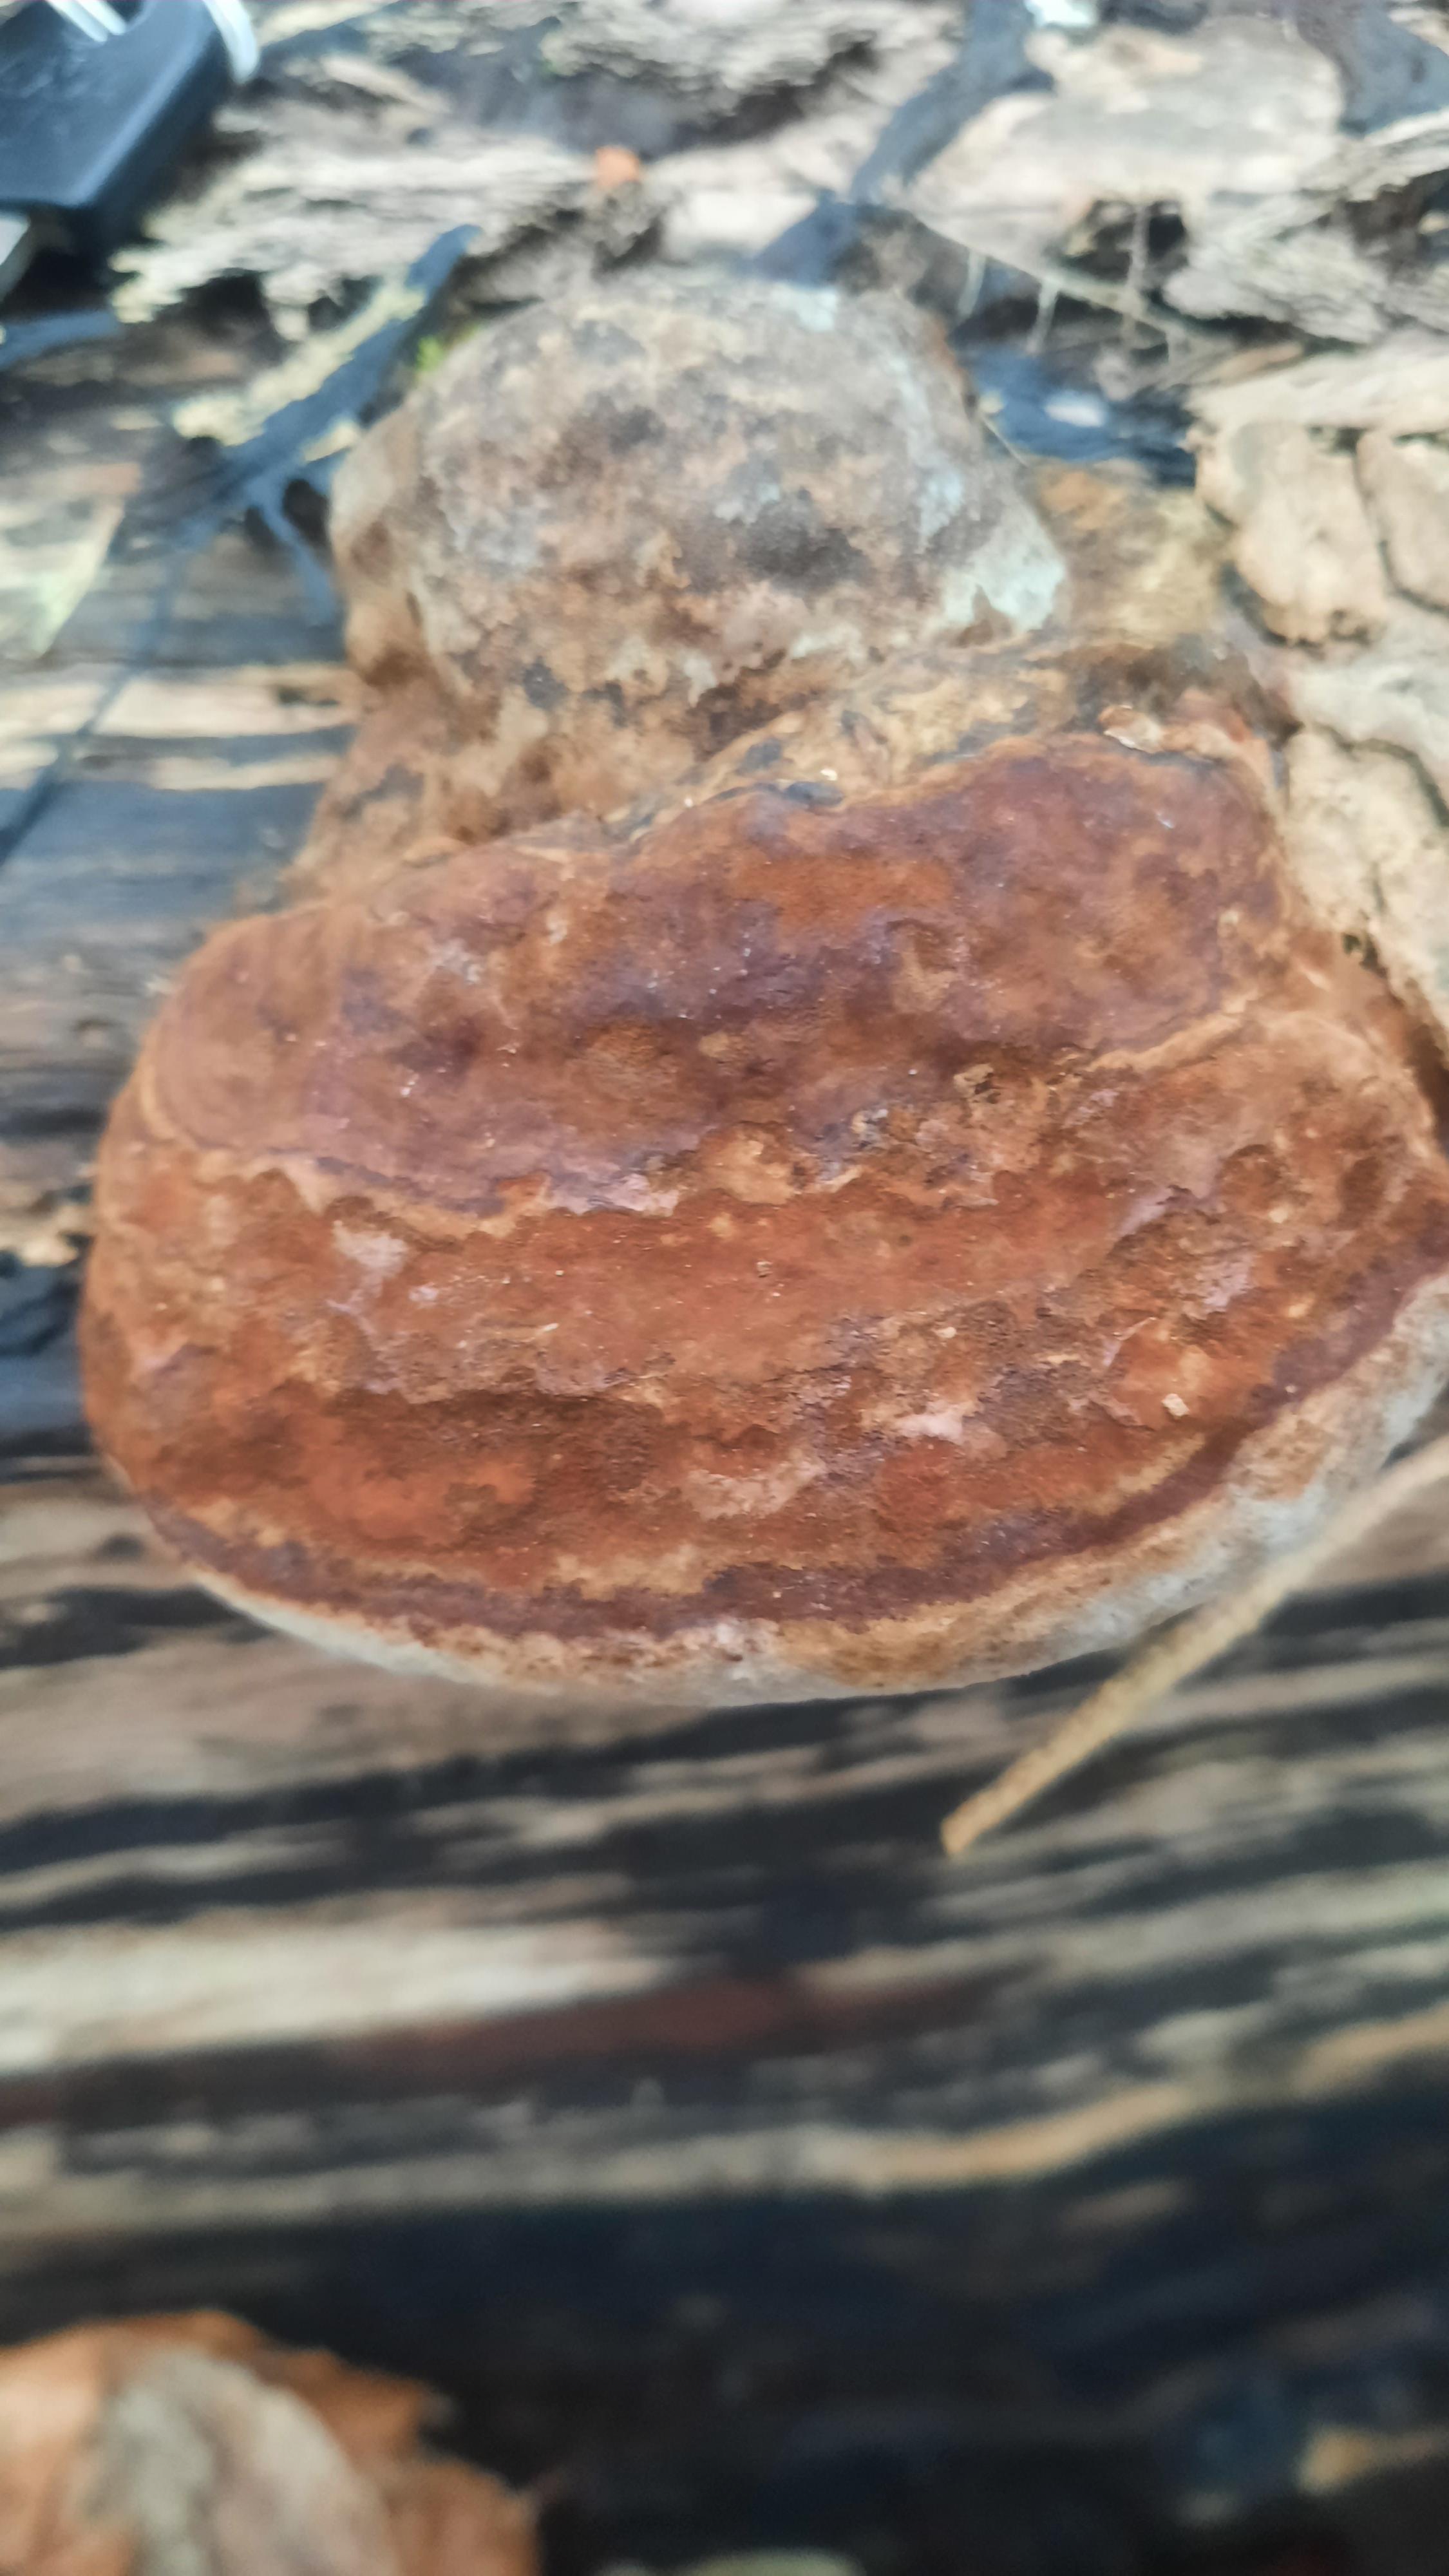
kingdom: Fungi
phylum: Basidiomycota
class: Agaricomycetes
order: Polyporales
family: Polyporaceae
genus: Fomes
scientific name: Fomes fomentarius
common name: tøndersvamp
